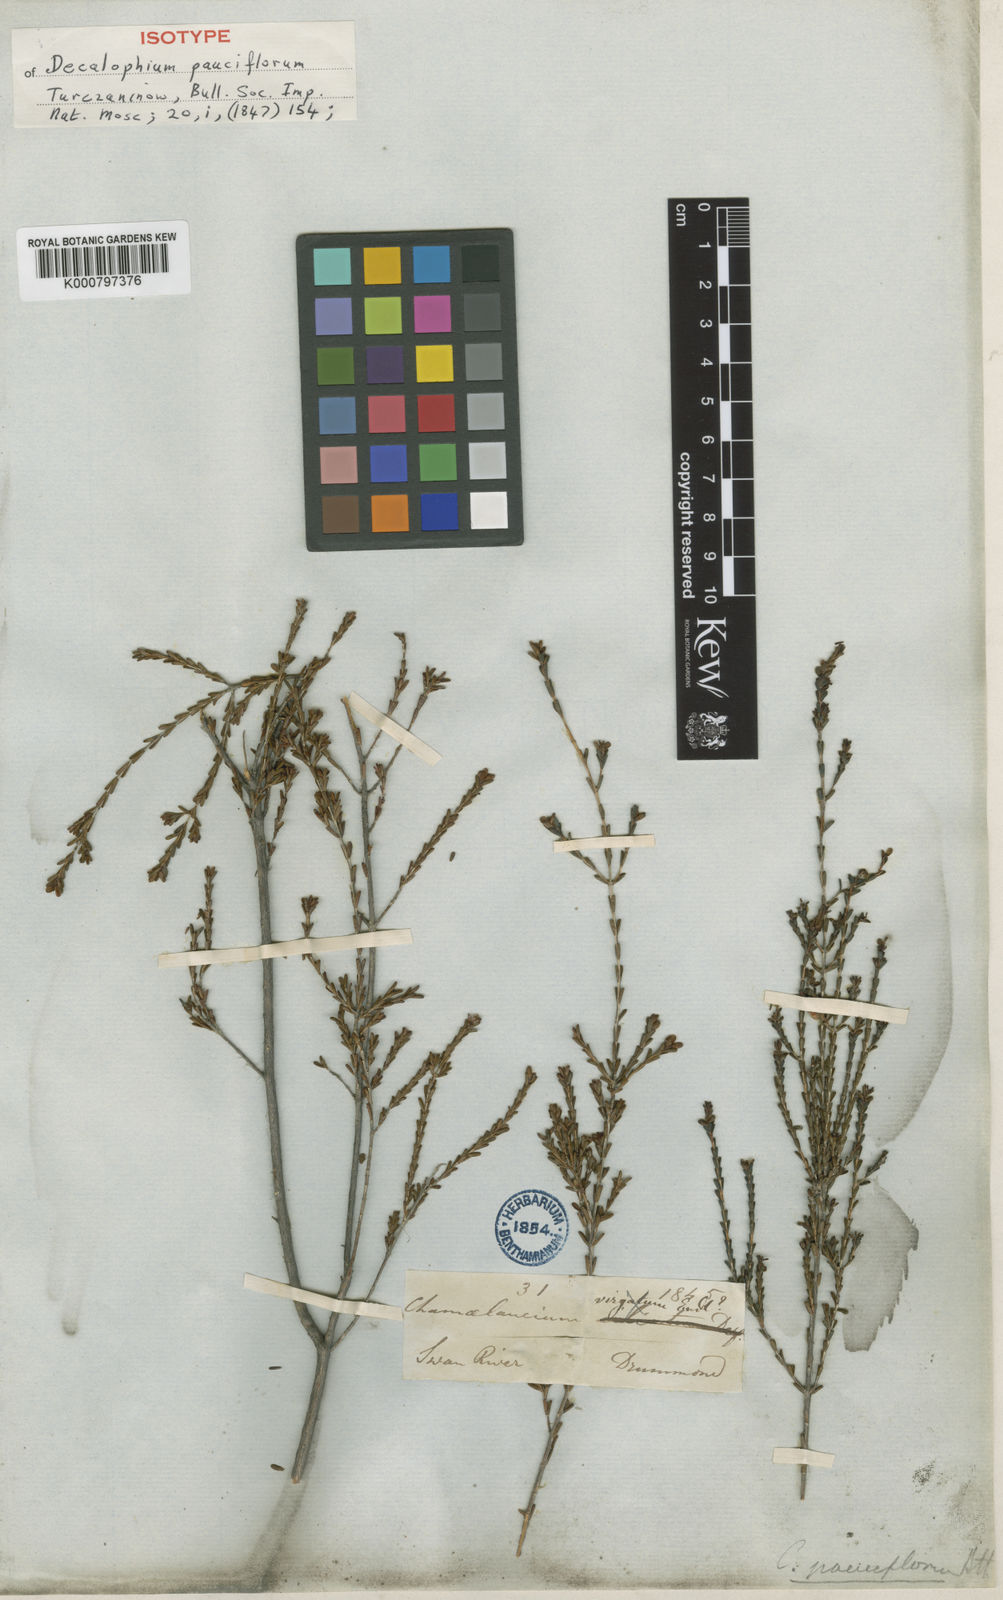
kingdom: Plantae
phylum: Tracheophyta
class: Magnoliopsida
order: Myrtales
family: Myrtaceae
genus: Chamelaucium
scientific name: Chamelaucium pauciflorum
